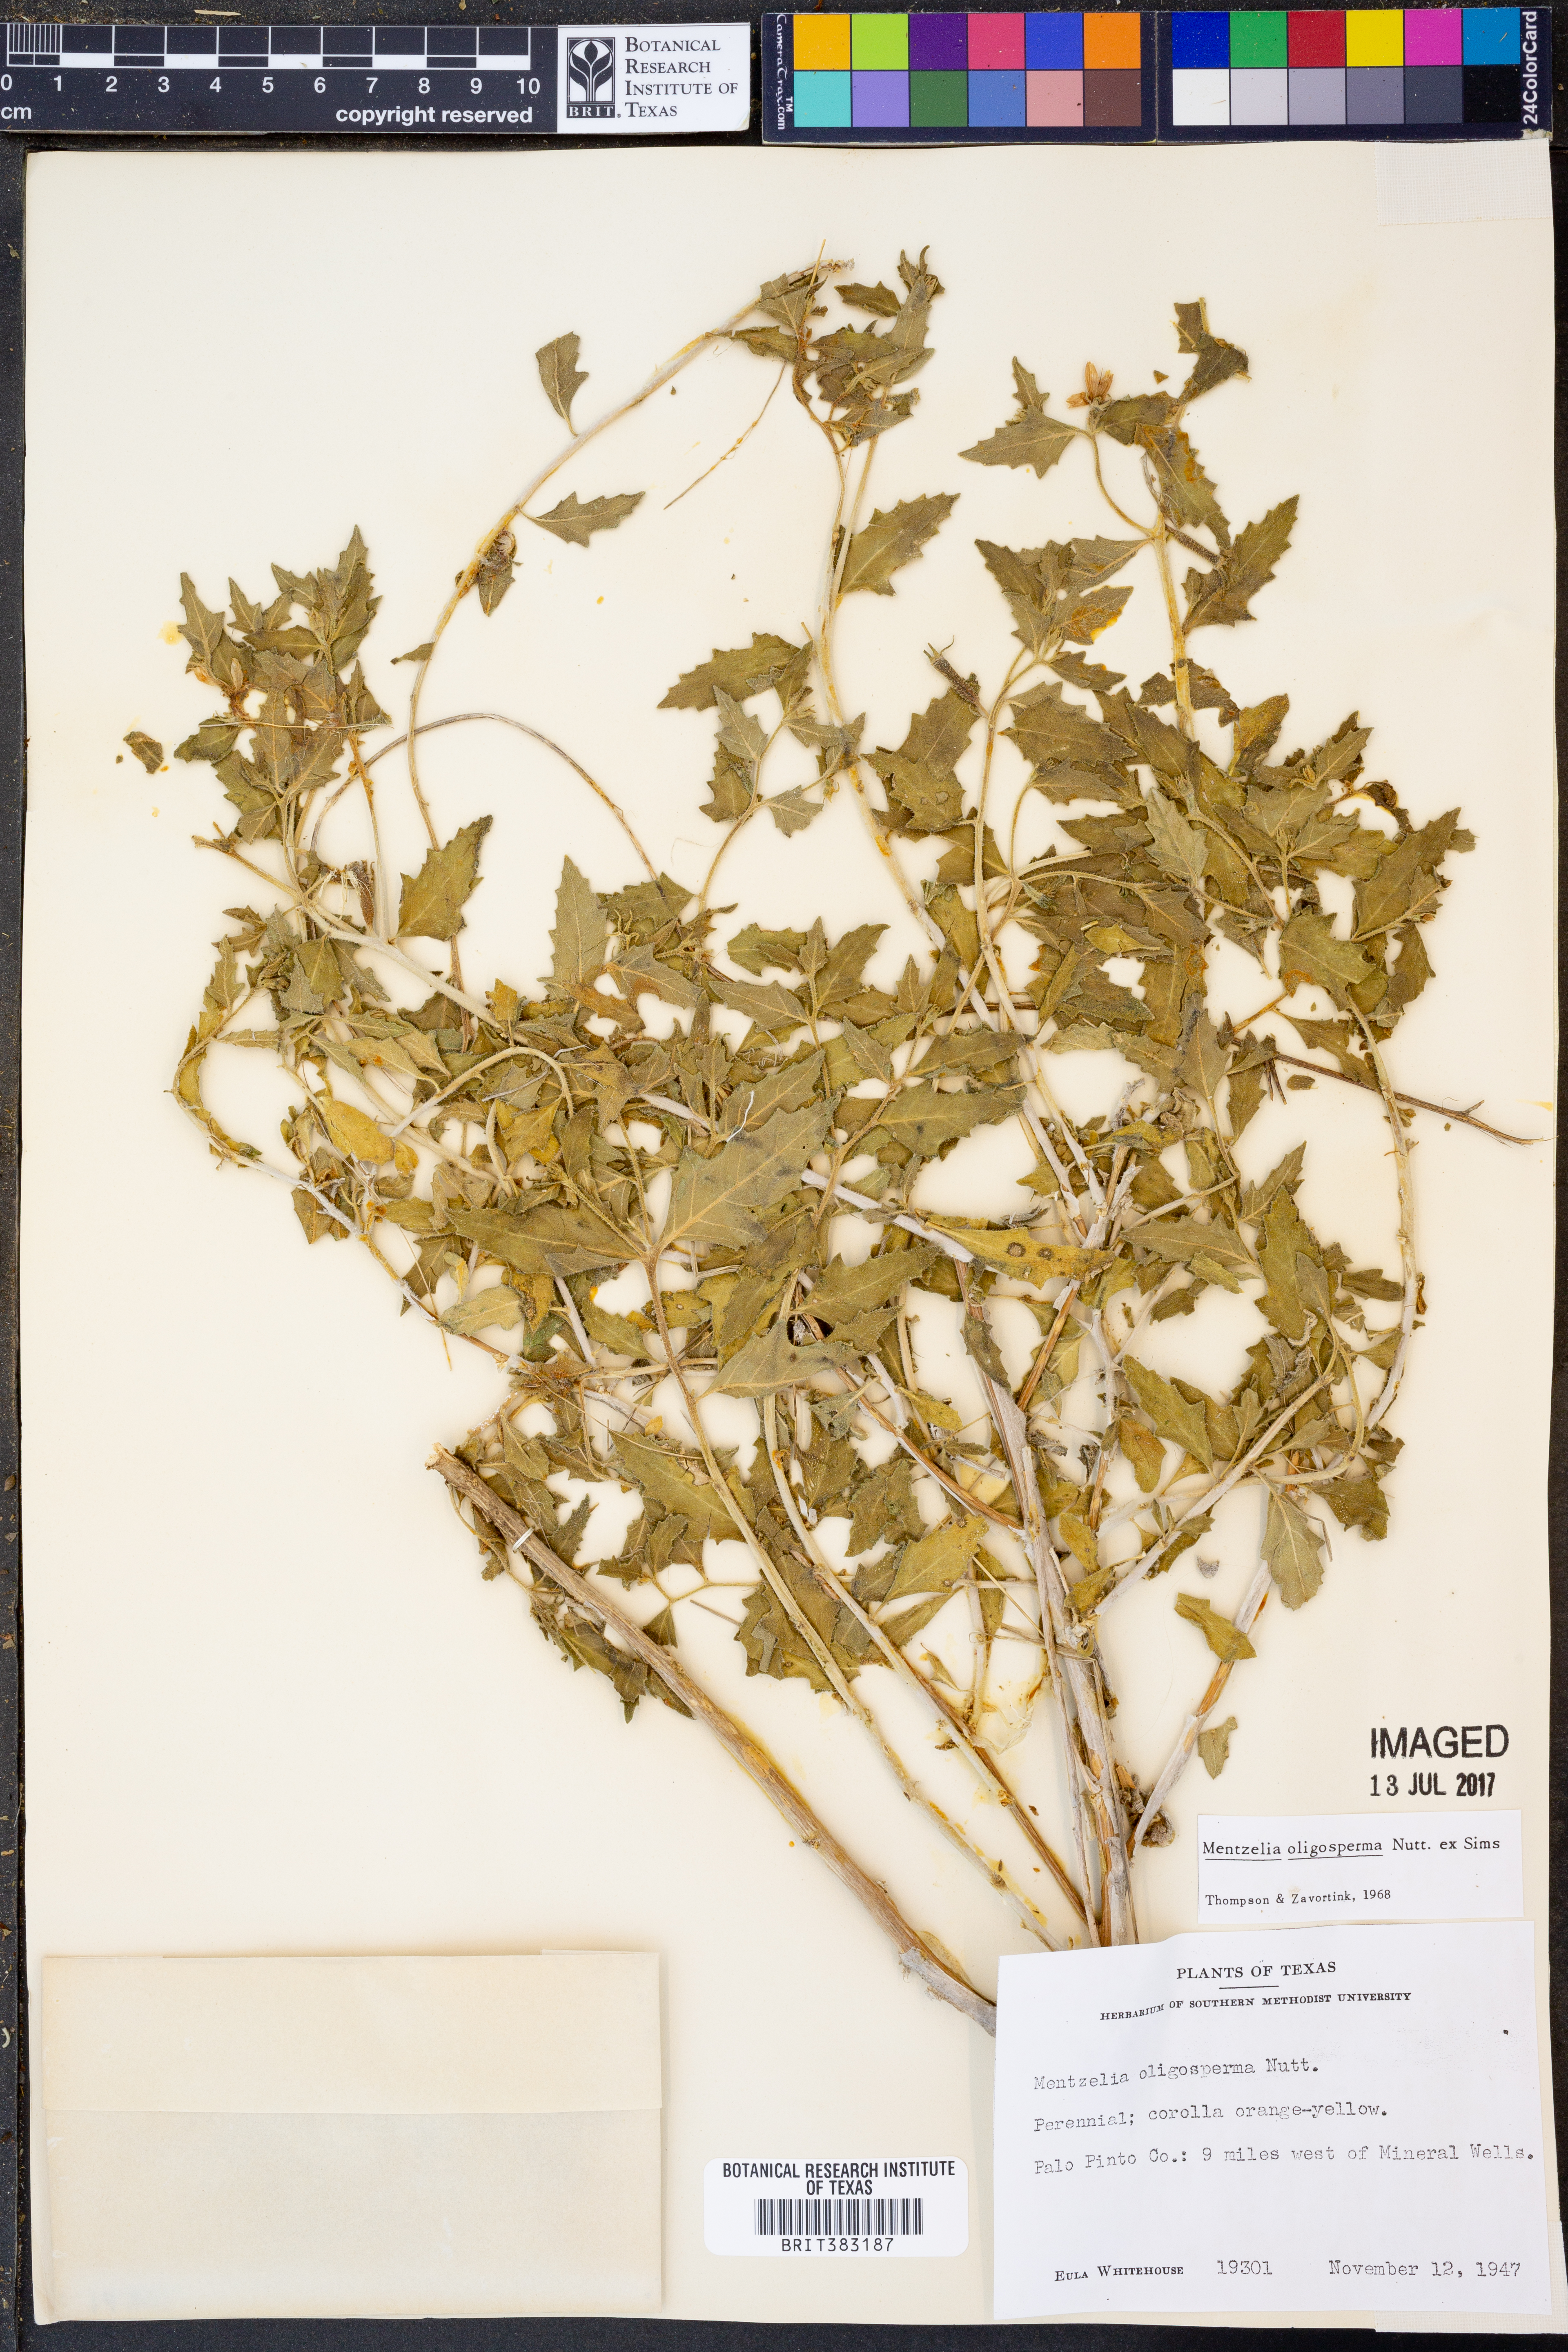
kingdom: Plantae
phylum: Tracheophyta
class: Magnoliopsida
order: Cornales
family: Loasaceae
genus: Mentzelia
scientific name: Mentzelia oligosperma
